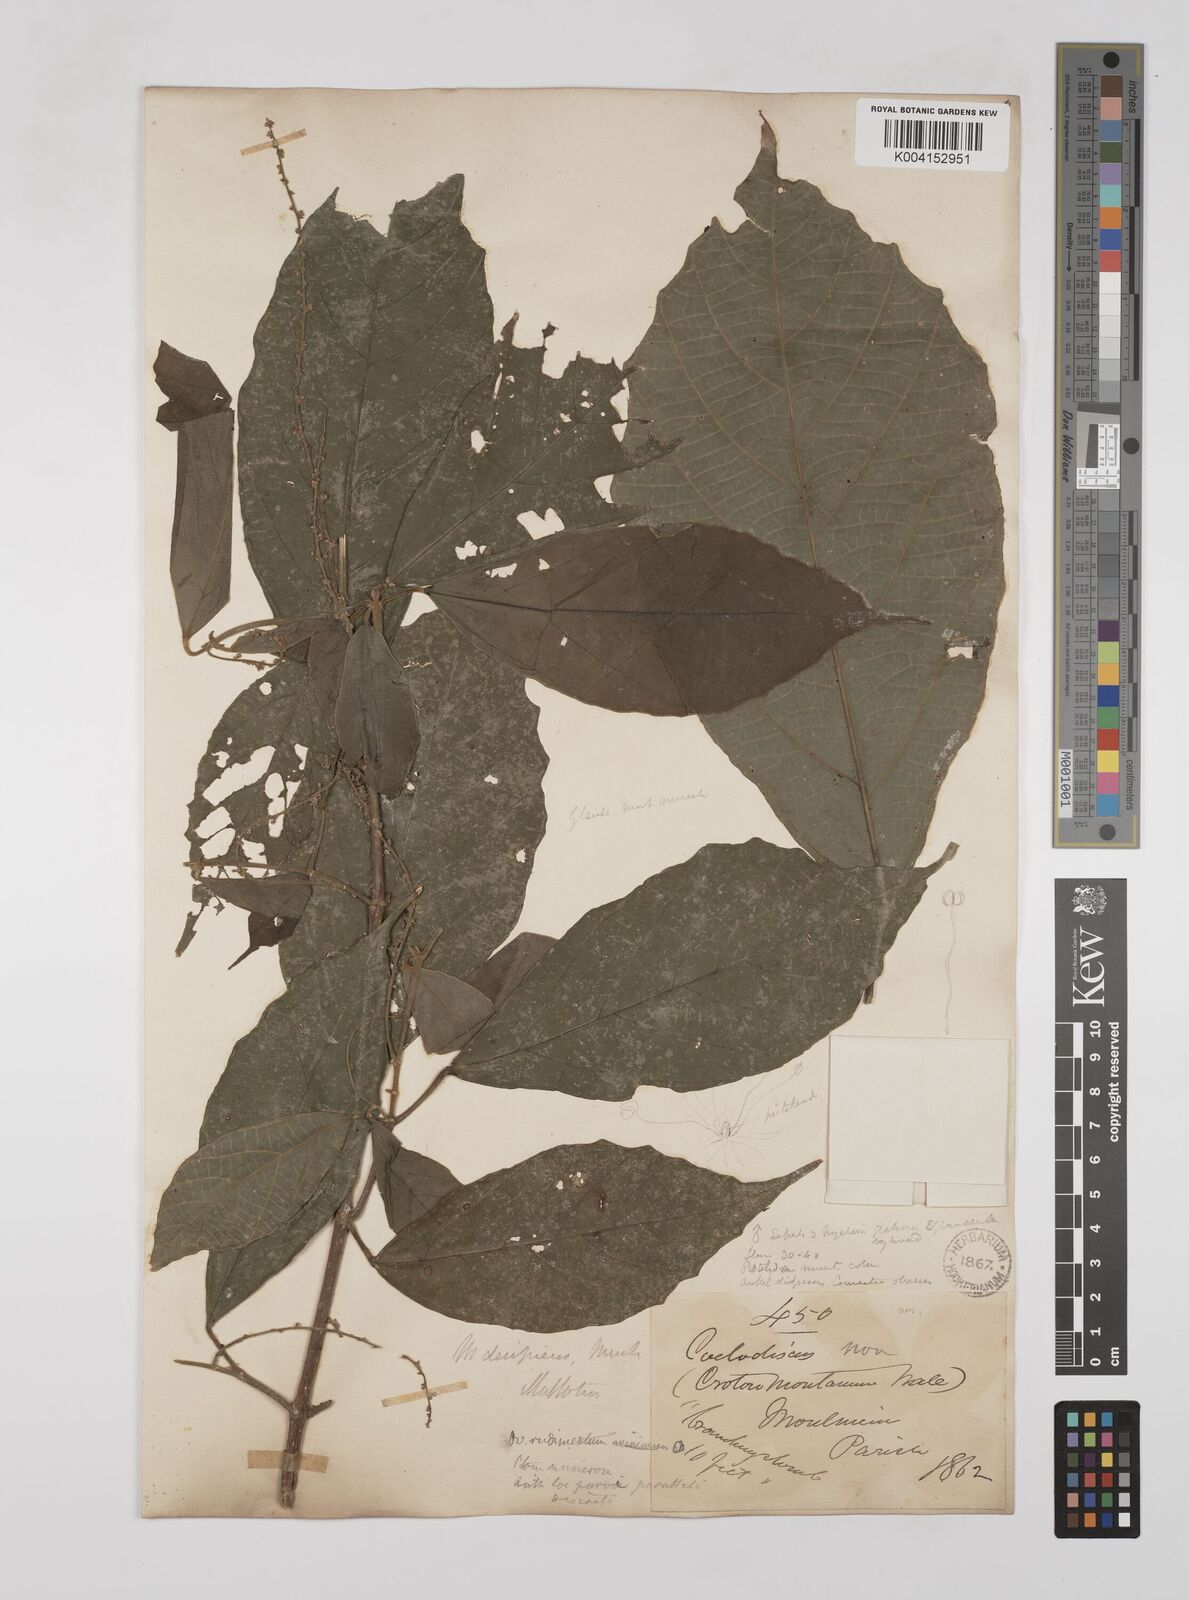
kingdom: Plantae
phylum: Tracheophyta
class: Magnoliopsida
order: Malpighiales
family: Euphorbiaceae
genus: Mallotus
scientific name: Mallotus decipiens
